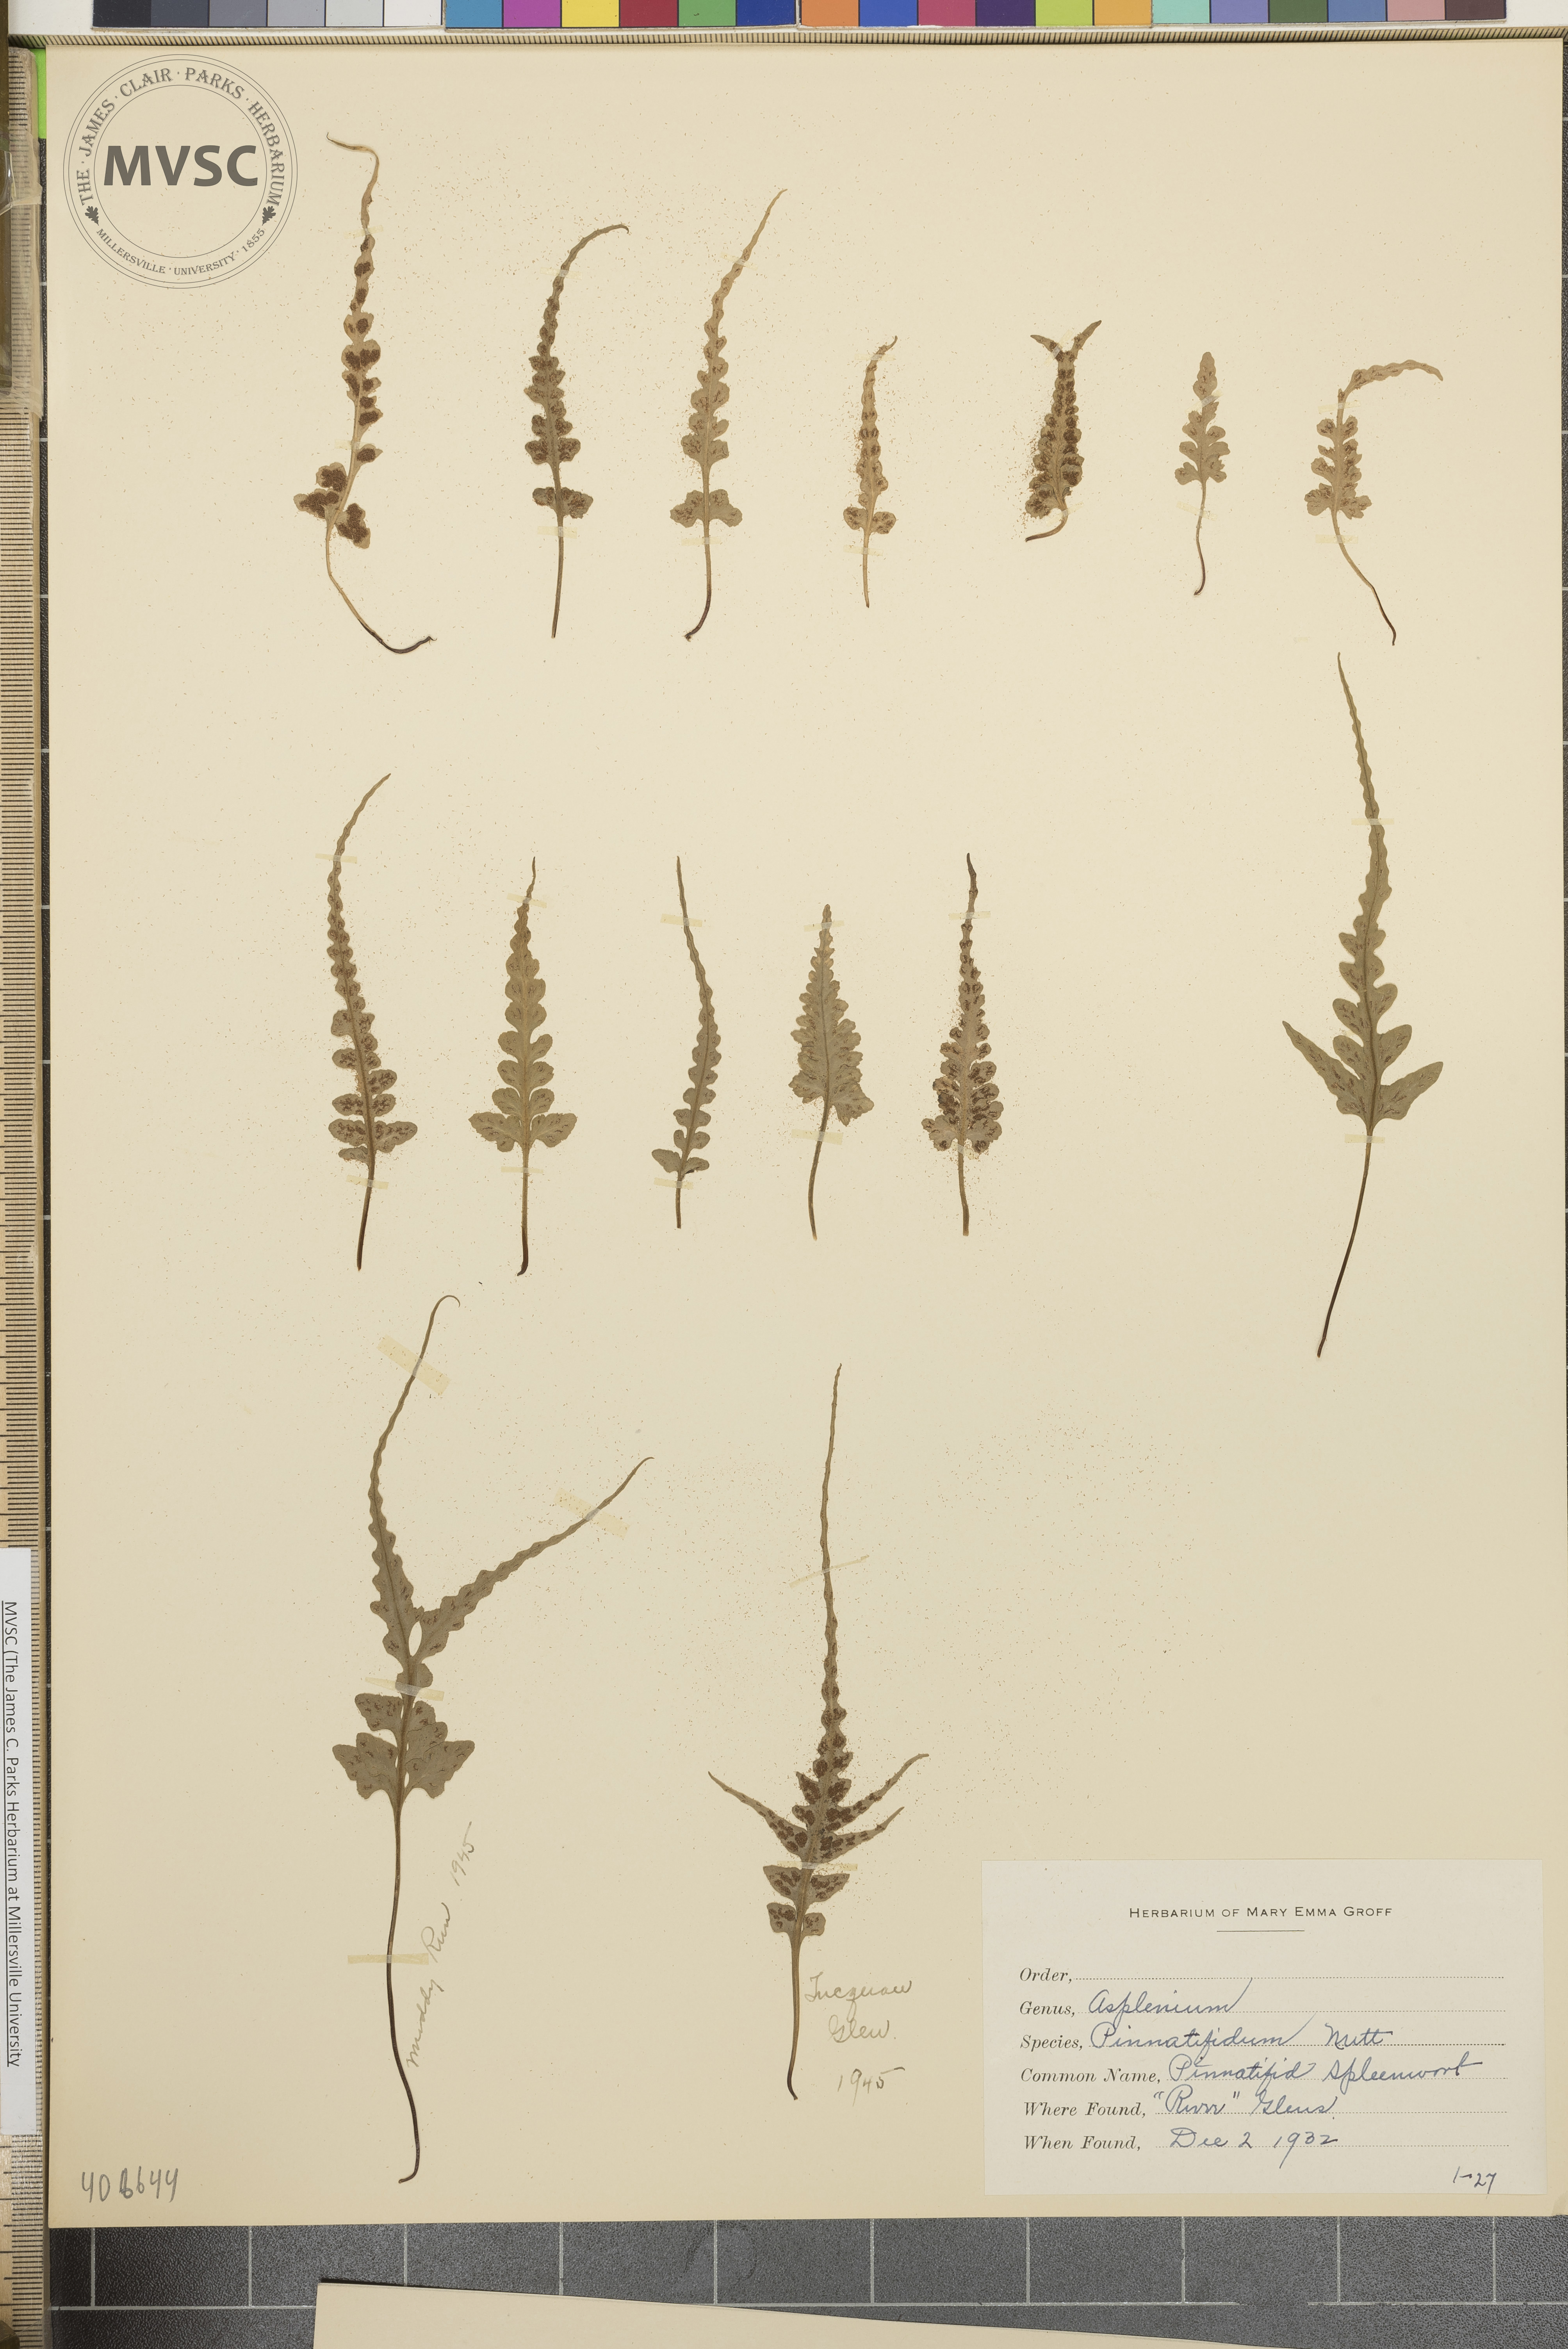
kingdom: Plantae
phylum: Tracheophyta
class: Polypodiopsida
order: Polypodiales
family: Aspleniaceae
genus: Asplenium
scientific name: Asplenium pinnatifidum
